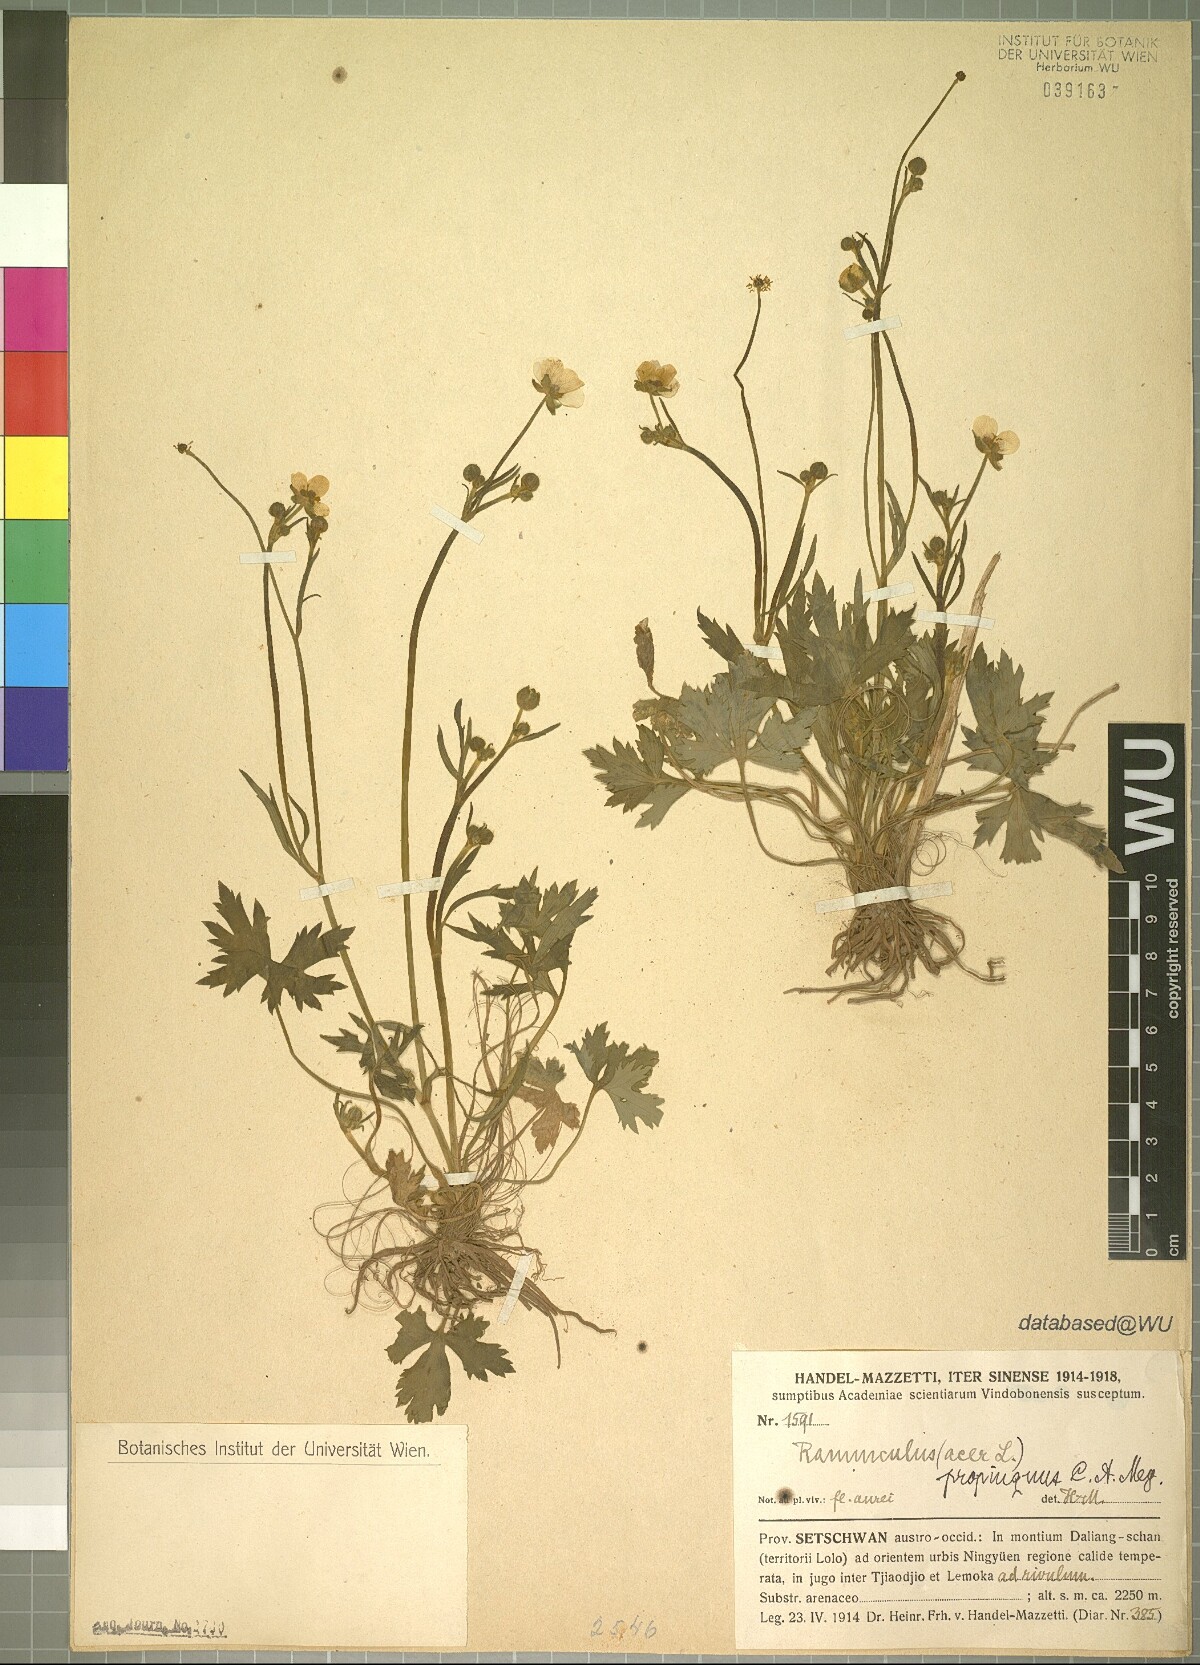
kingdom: Plantae
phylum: Tracheophyta
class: Magnoliopsida
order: Ranunculales
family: Ranunculaceae
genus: Ranunculus
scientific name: Ranunculus propinquus
